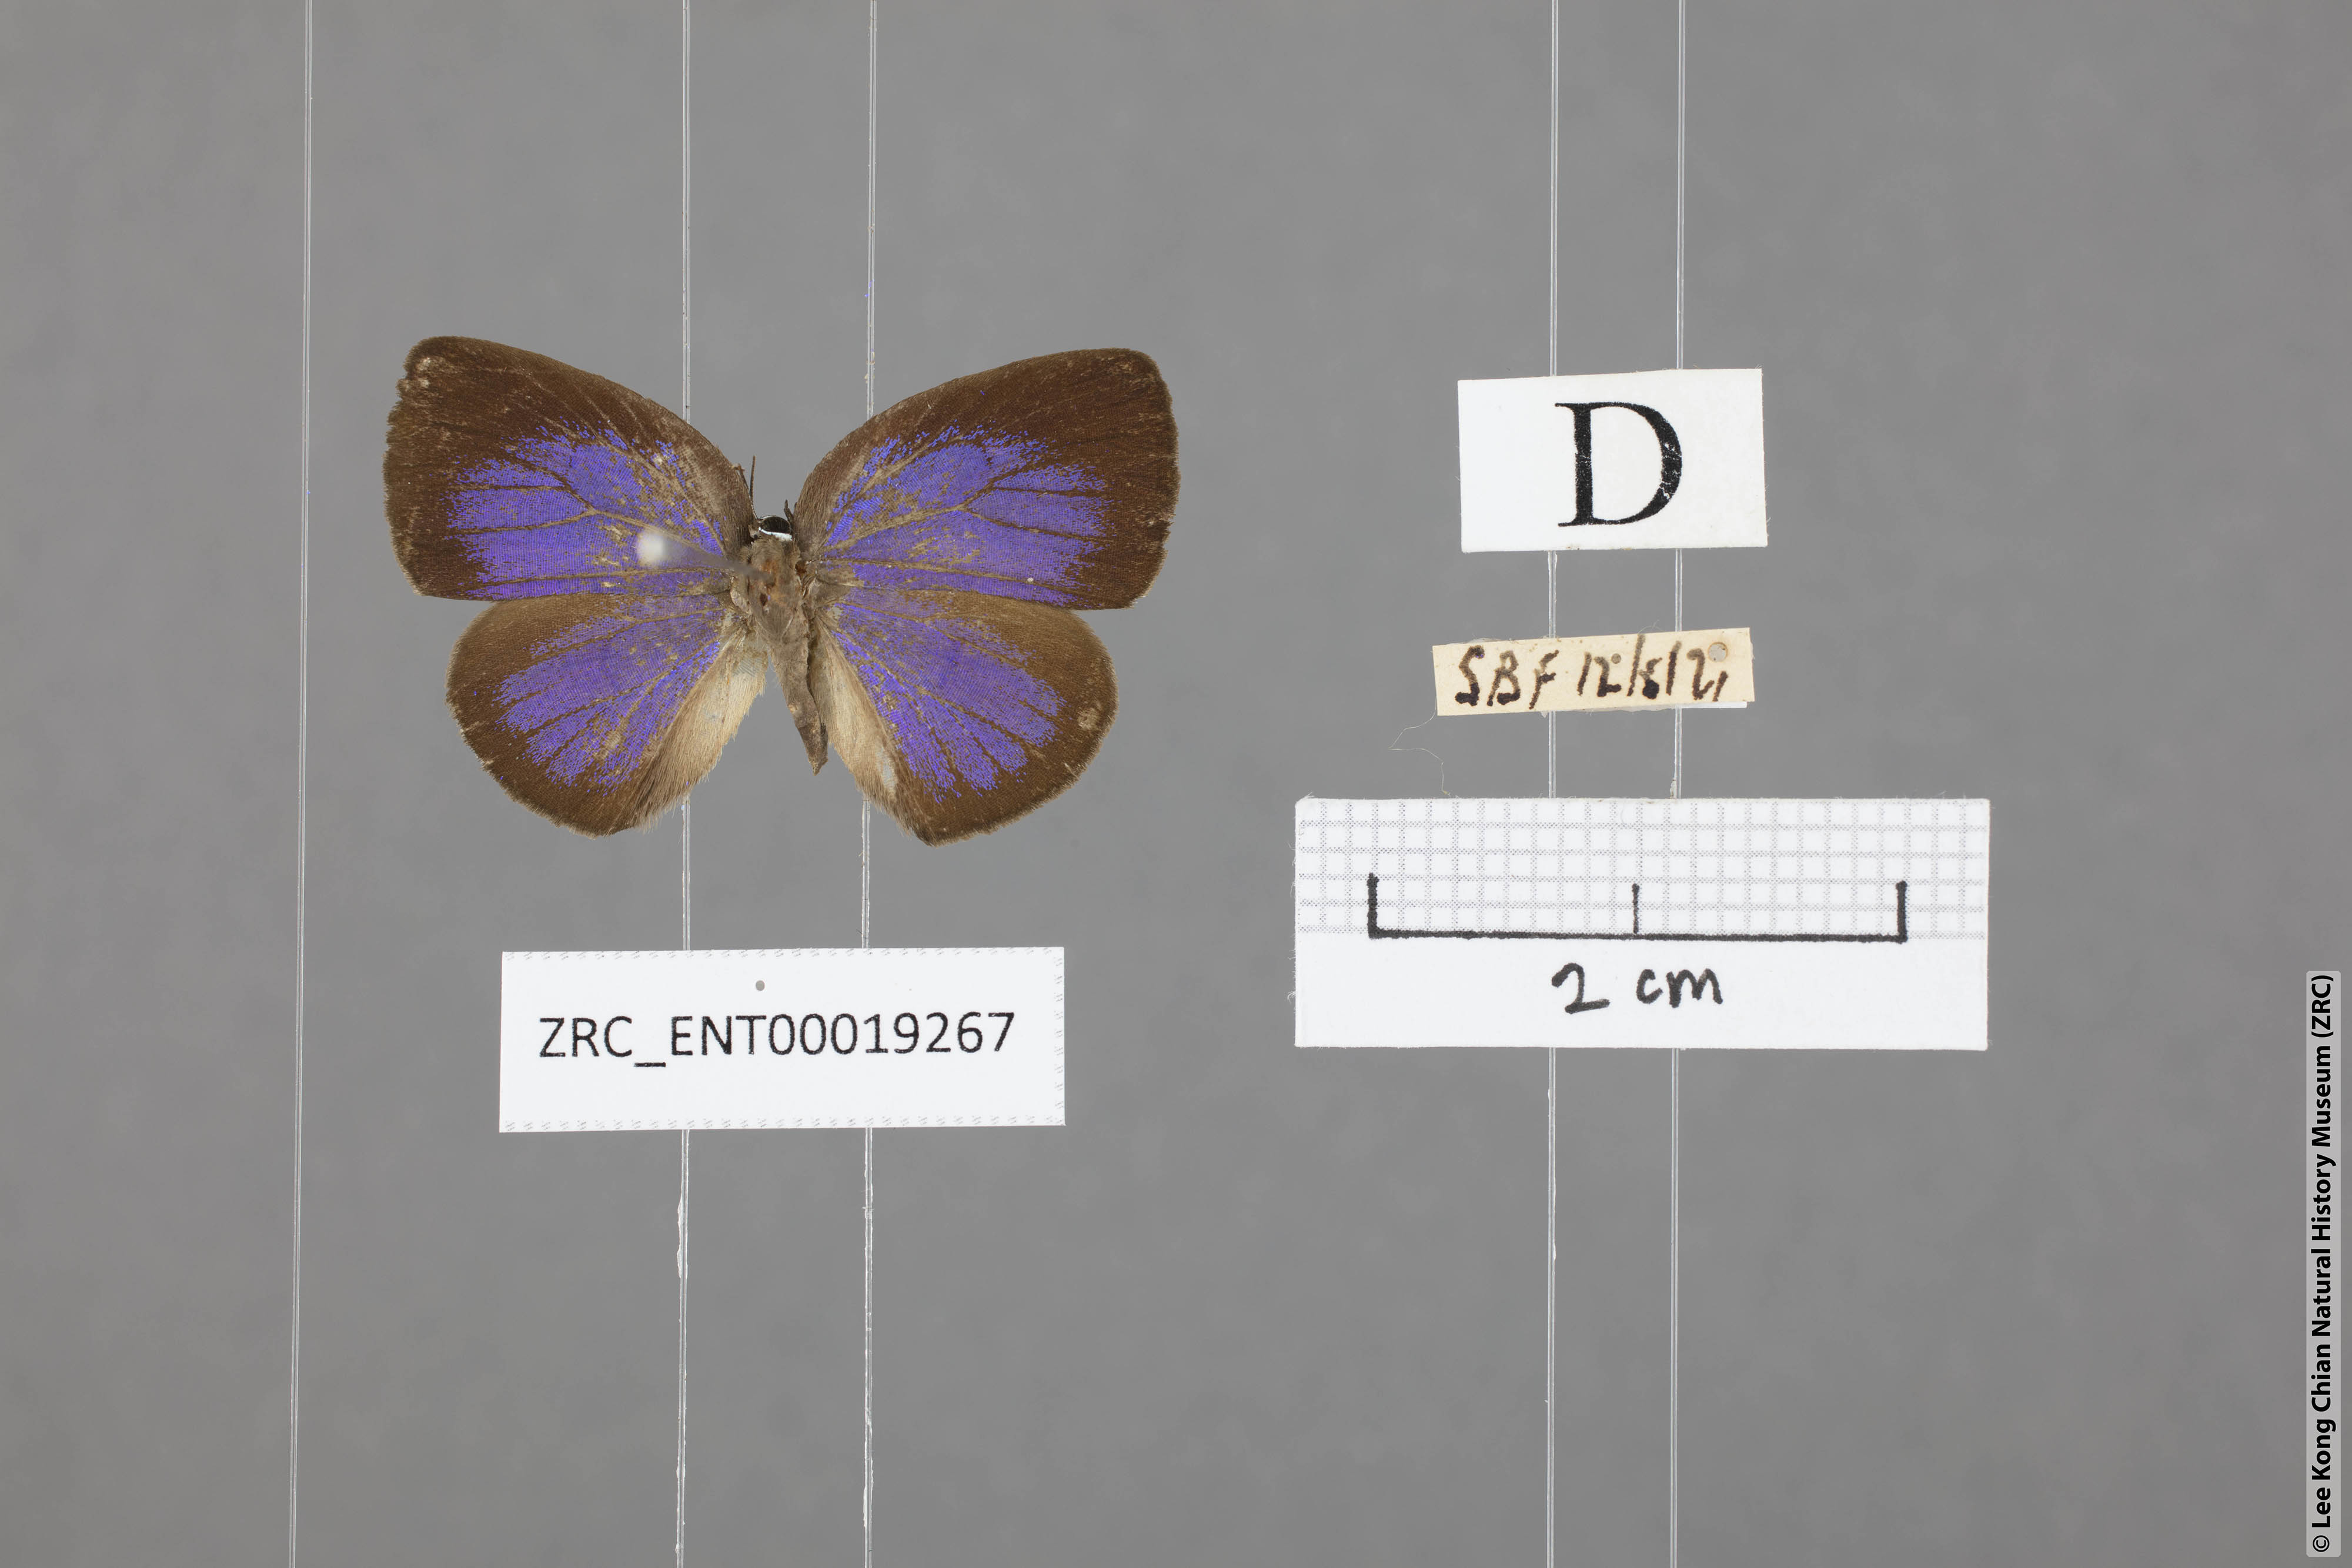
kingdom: Animalia
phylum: Arthropoda
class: Insecta
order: Lepidoptera
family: Lycaenidae
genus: Arhopala
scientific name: Arhopala avathina
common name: Lunulate yellow oakblue
